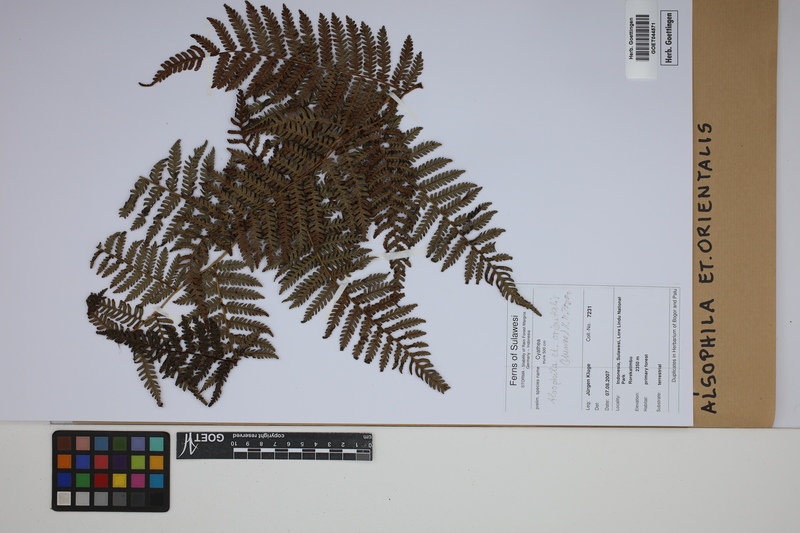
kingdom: Plantae
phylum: Tracheophyta
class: Polypodiopsida
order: Cyatheales
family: Cyatheaceae
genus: Alsophila
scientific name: Alsophila orientalis
